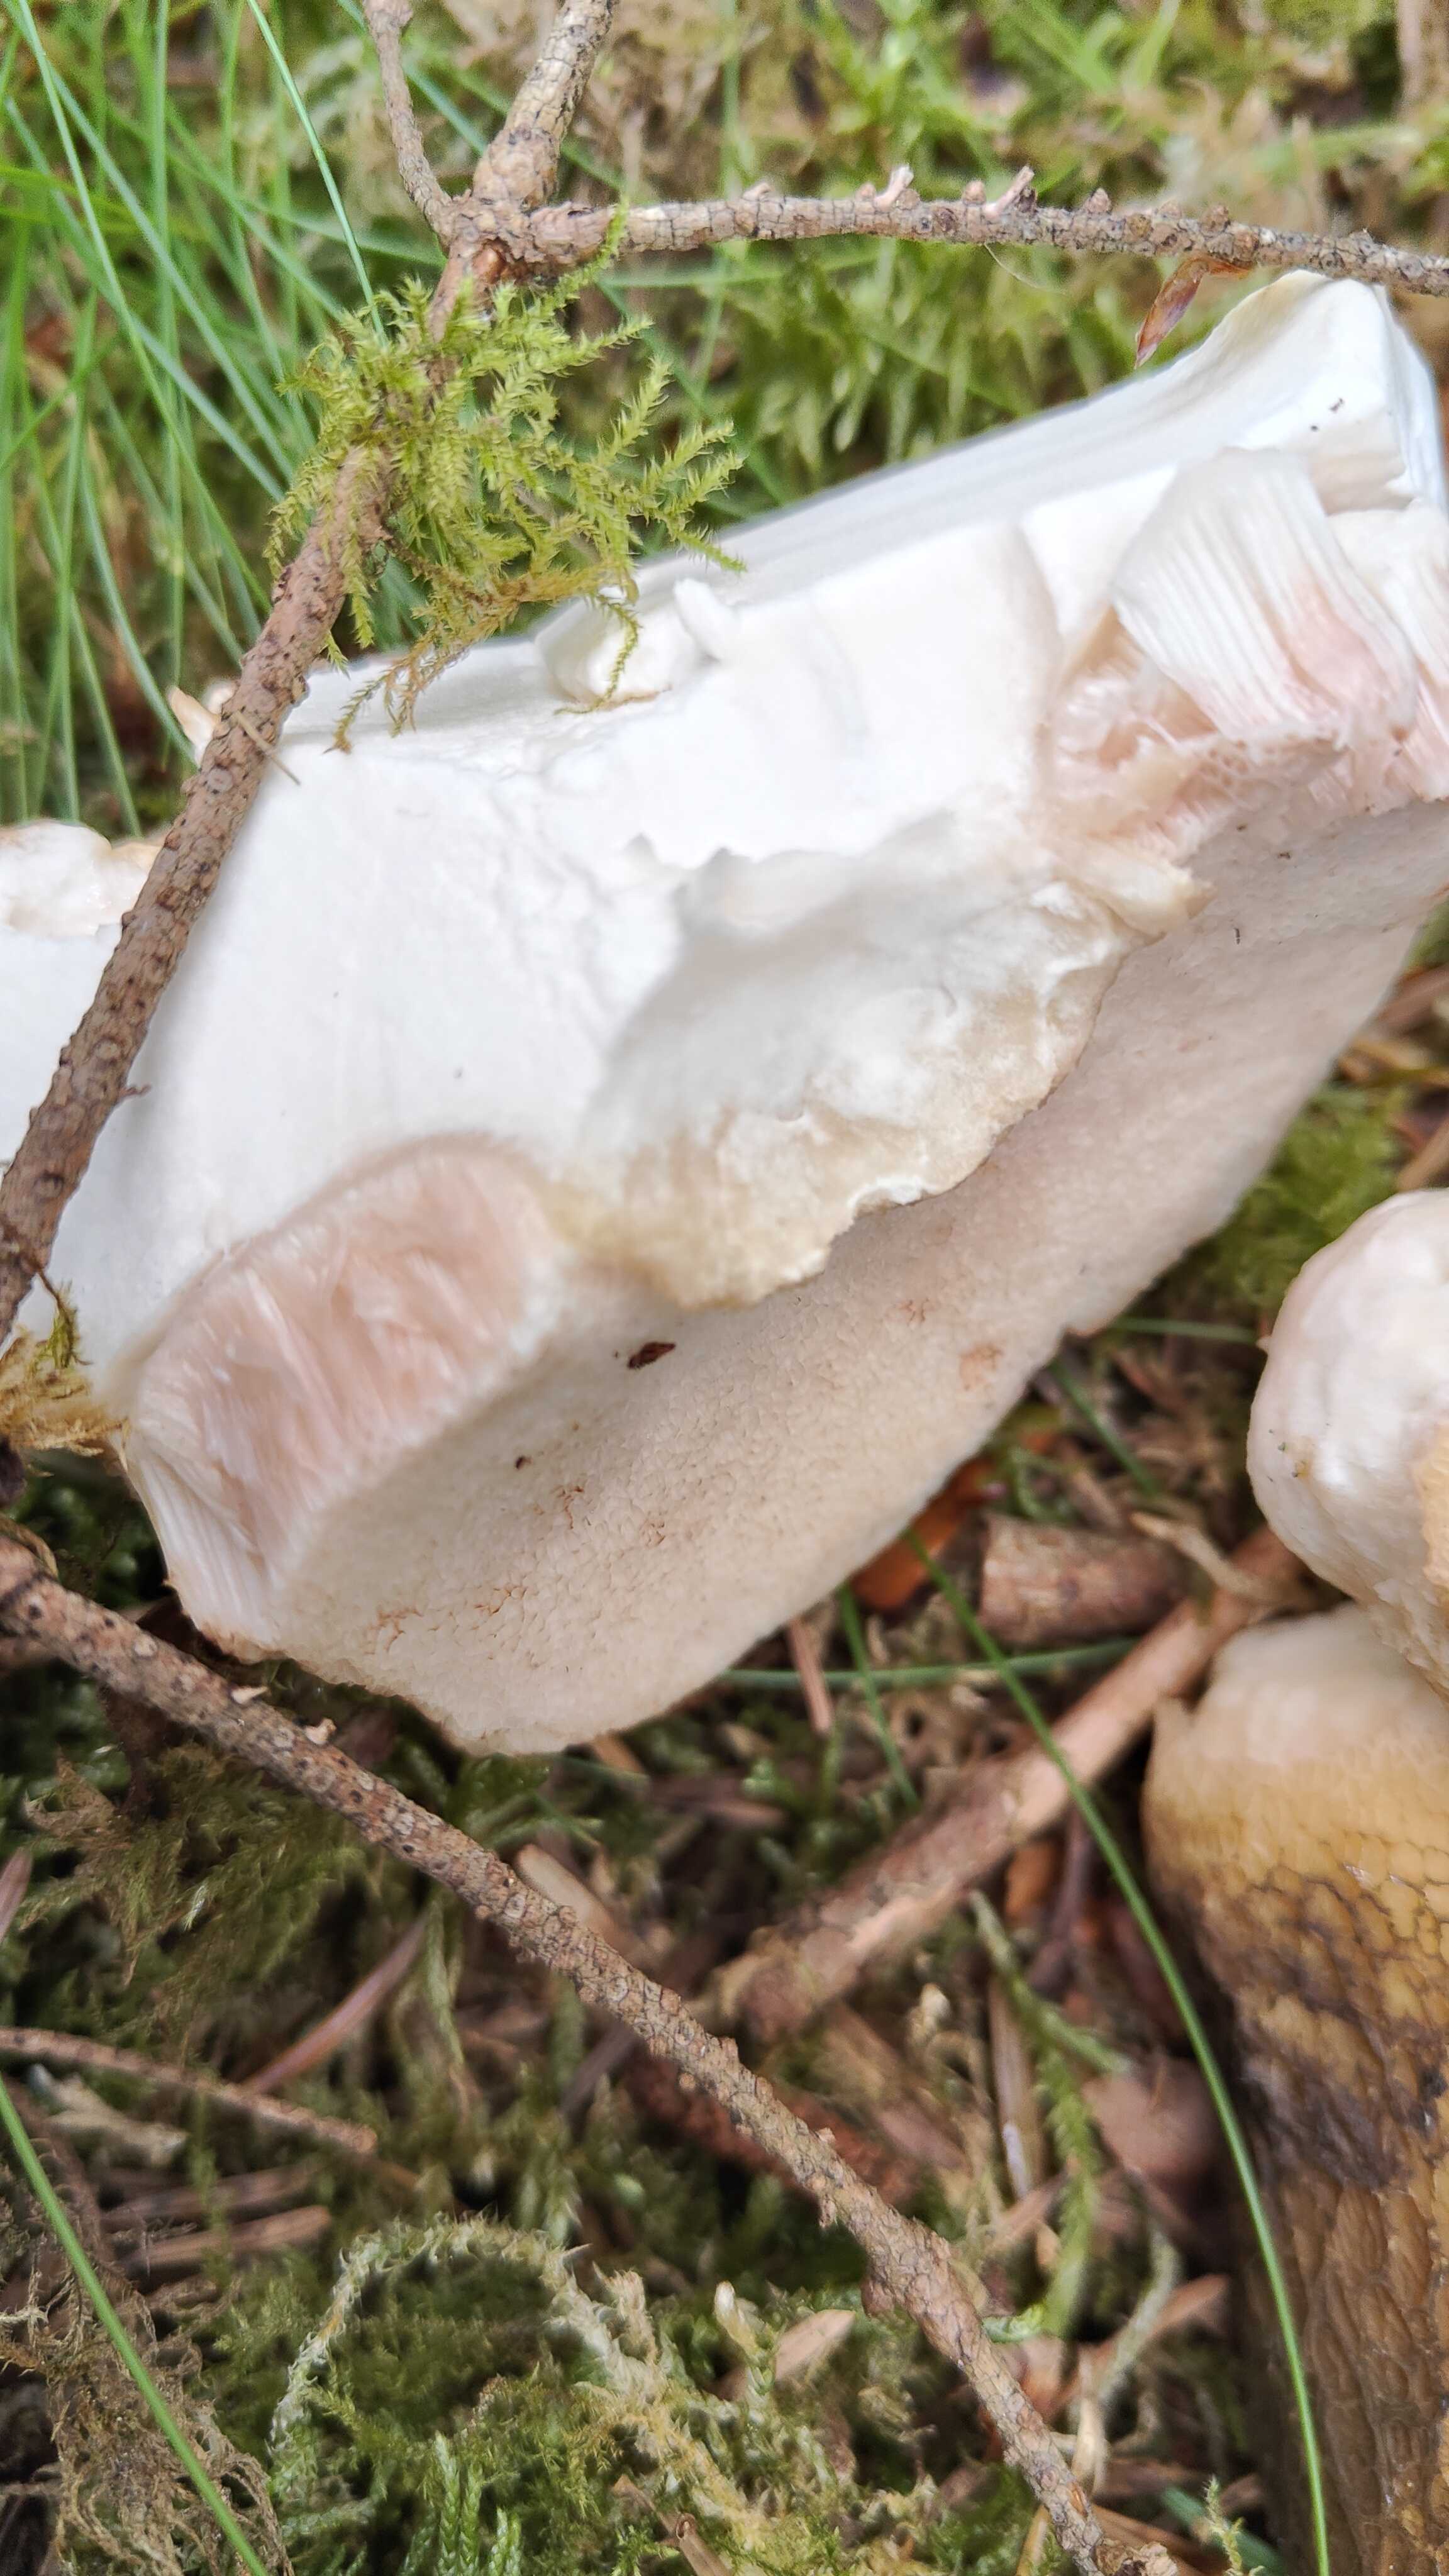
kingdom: Fungi
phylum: Basidiomycota
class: Agaricomycetes
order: Boletales
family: Boletaceae
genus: Tylopilus
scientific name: Tylopilus felleus
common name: galderørhat
